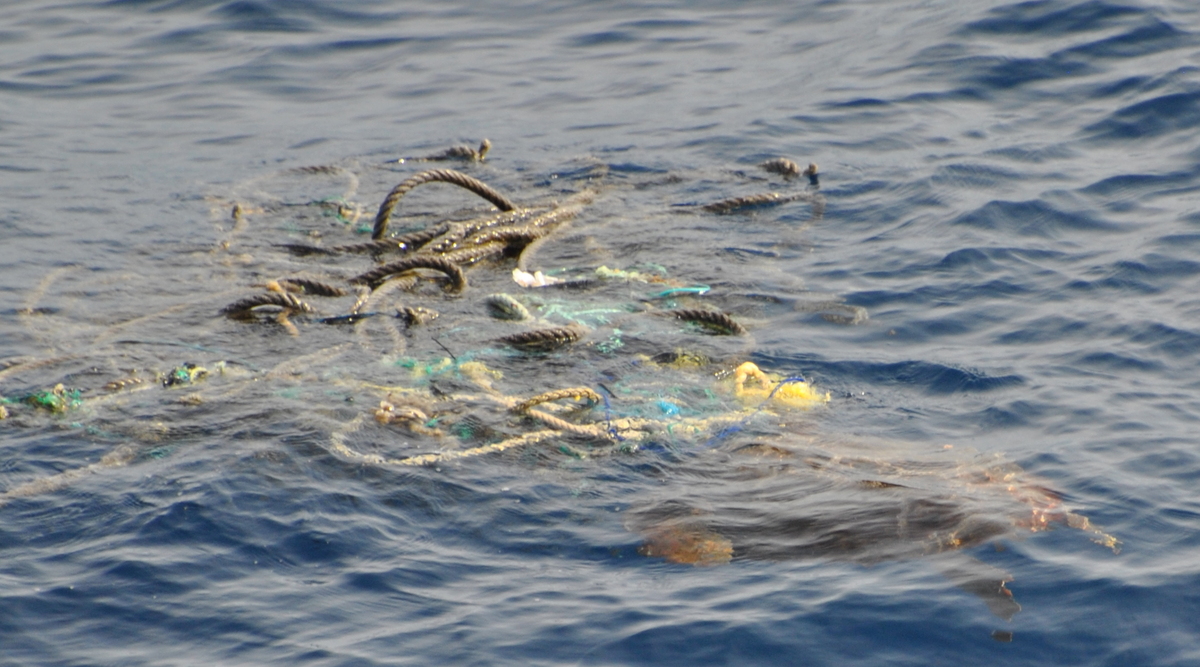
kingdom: Animalia
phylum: Chordata
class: Testudines
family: Cheloniidae
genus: Caretta
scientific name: Caretta caretta
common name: Loggerhead Sea Turtle
